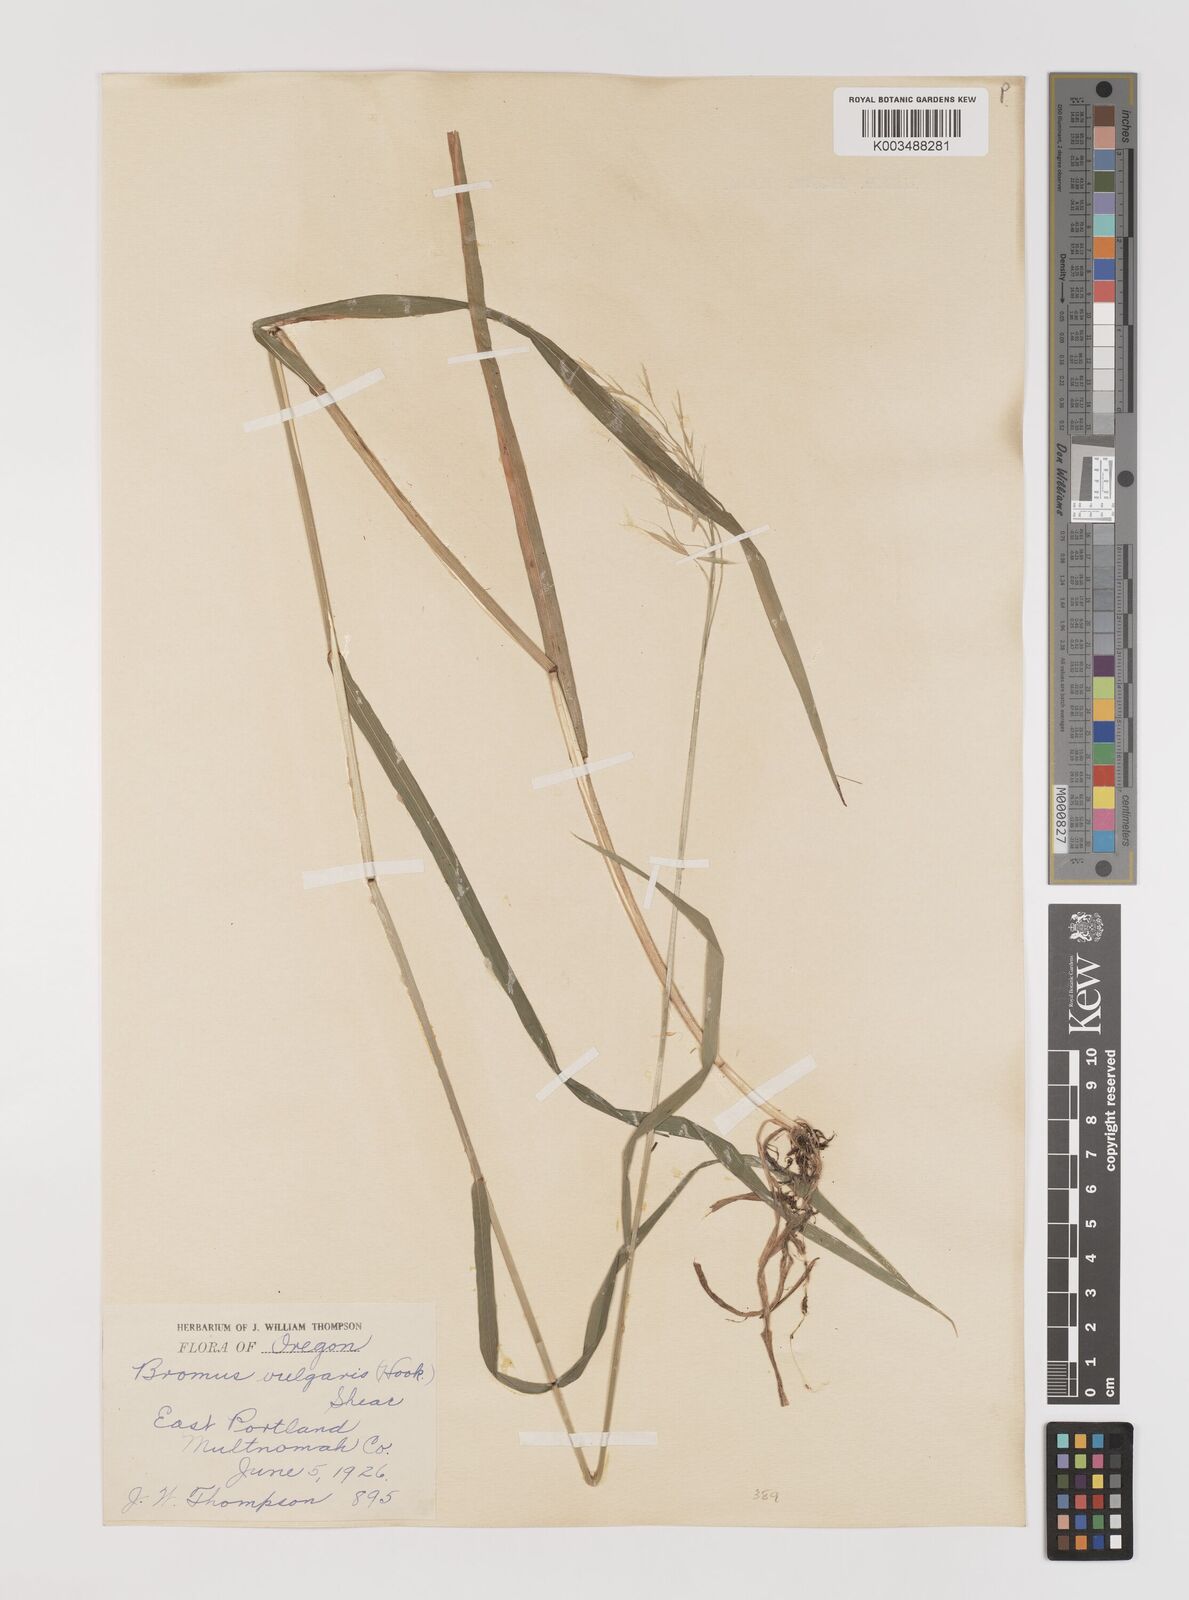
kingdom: Plantae
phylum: Tracheophyta
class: Liliopsida
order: Poales
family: Poaceae
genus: Bromus
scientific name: Bromus vulgaris
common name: Columbia brome
